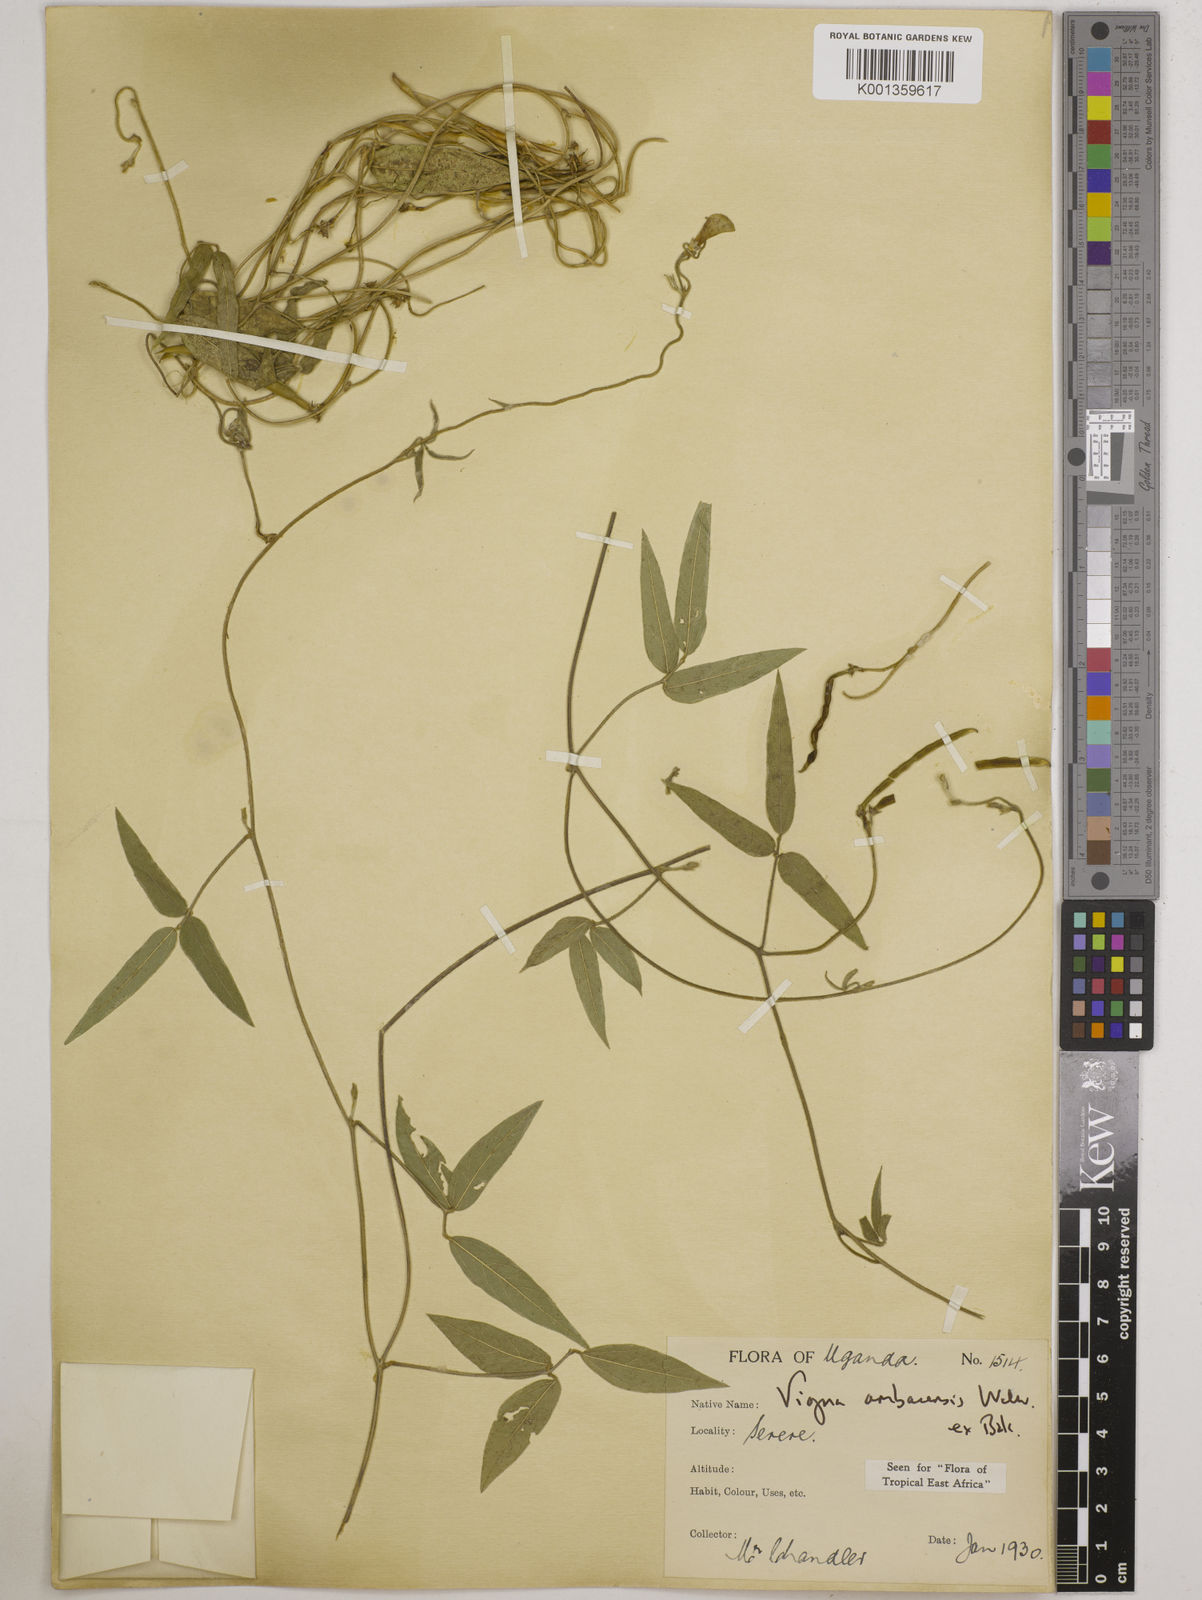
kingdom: Plantae
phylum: Tracheophyta
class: Magnoliopsida
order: Fabales
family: Fabaceae
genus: Vigna
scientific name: Vigna ambacensis
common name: Tsarkiyan zomo
